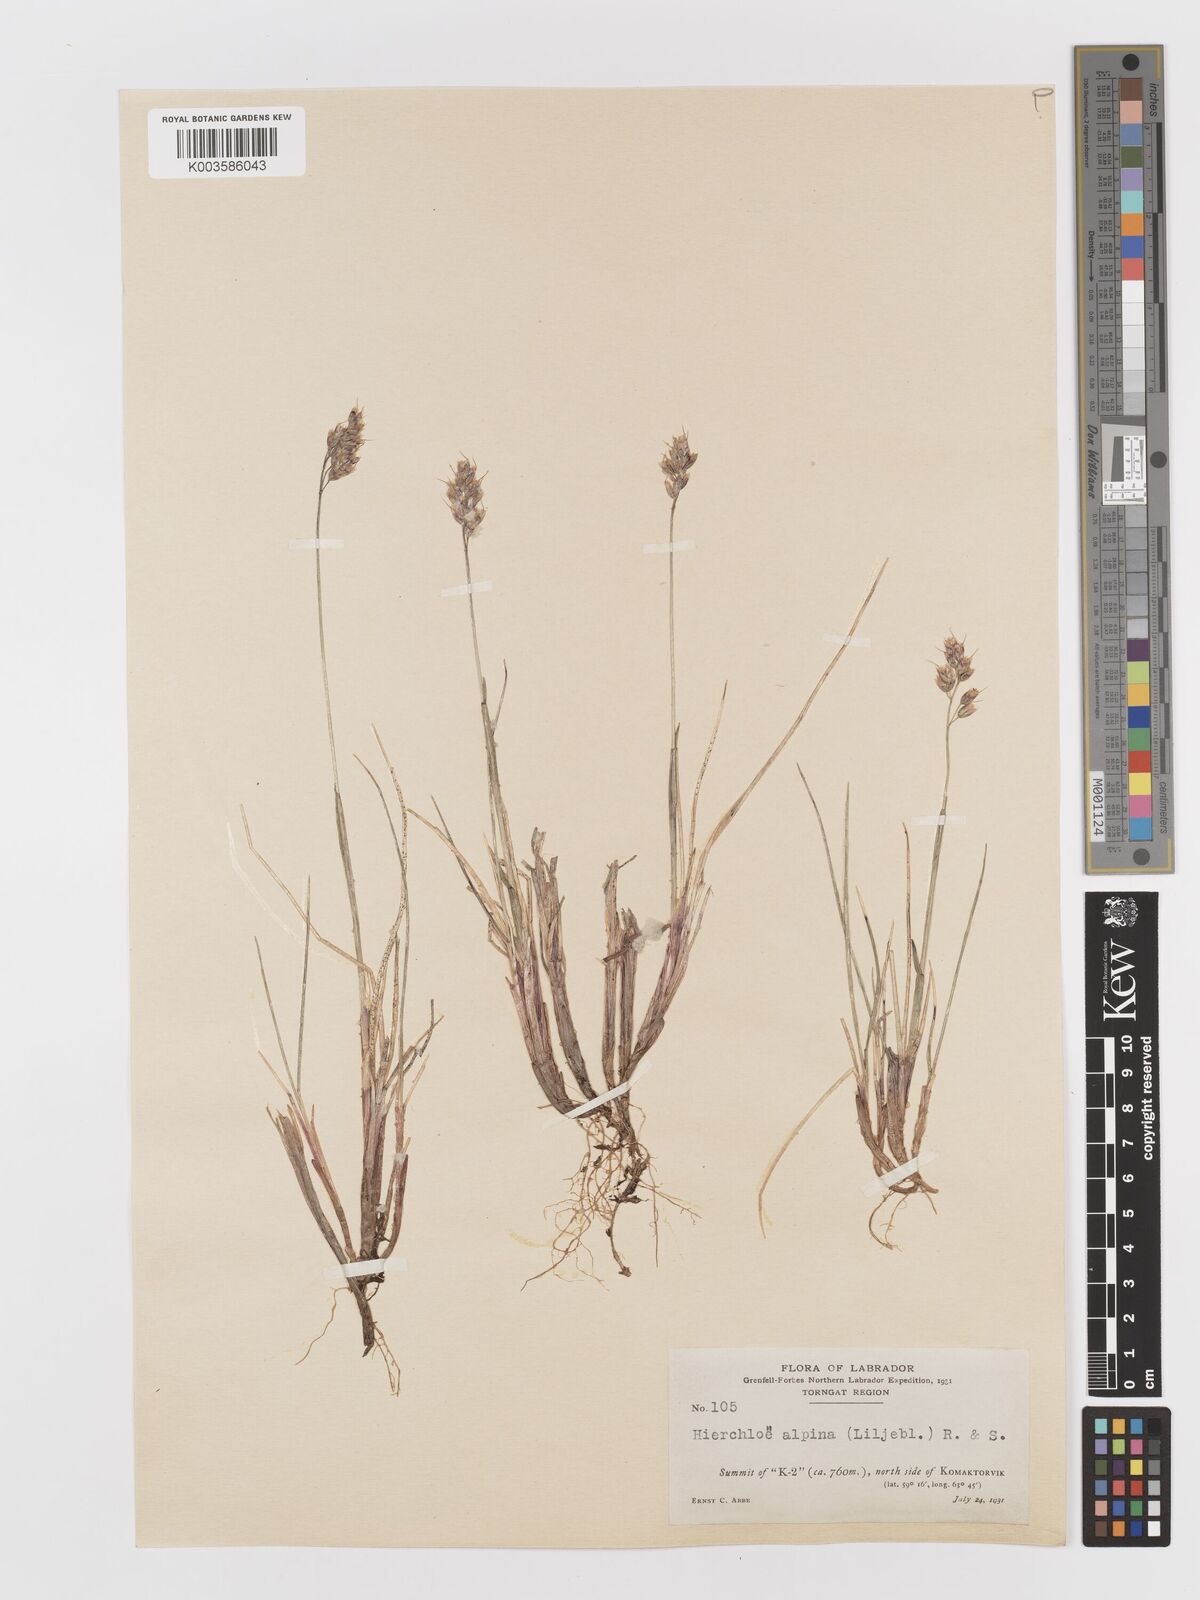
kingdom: Plantae
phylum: Tracheophyta
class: Liliopsida
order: Poales
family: Poaceae
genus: Anthoxanthum
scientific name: Anthoxanthum monticola
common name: Alpine sweetgrass
